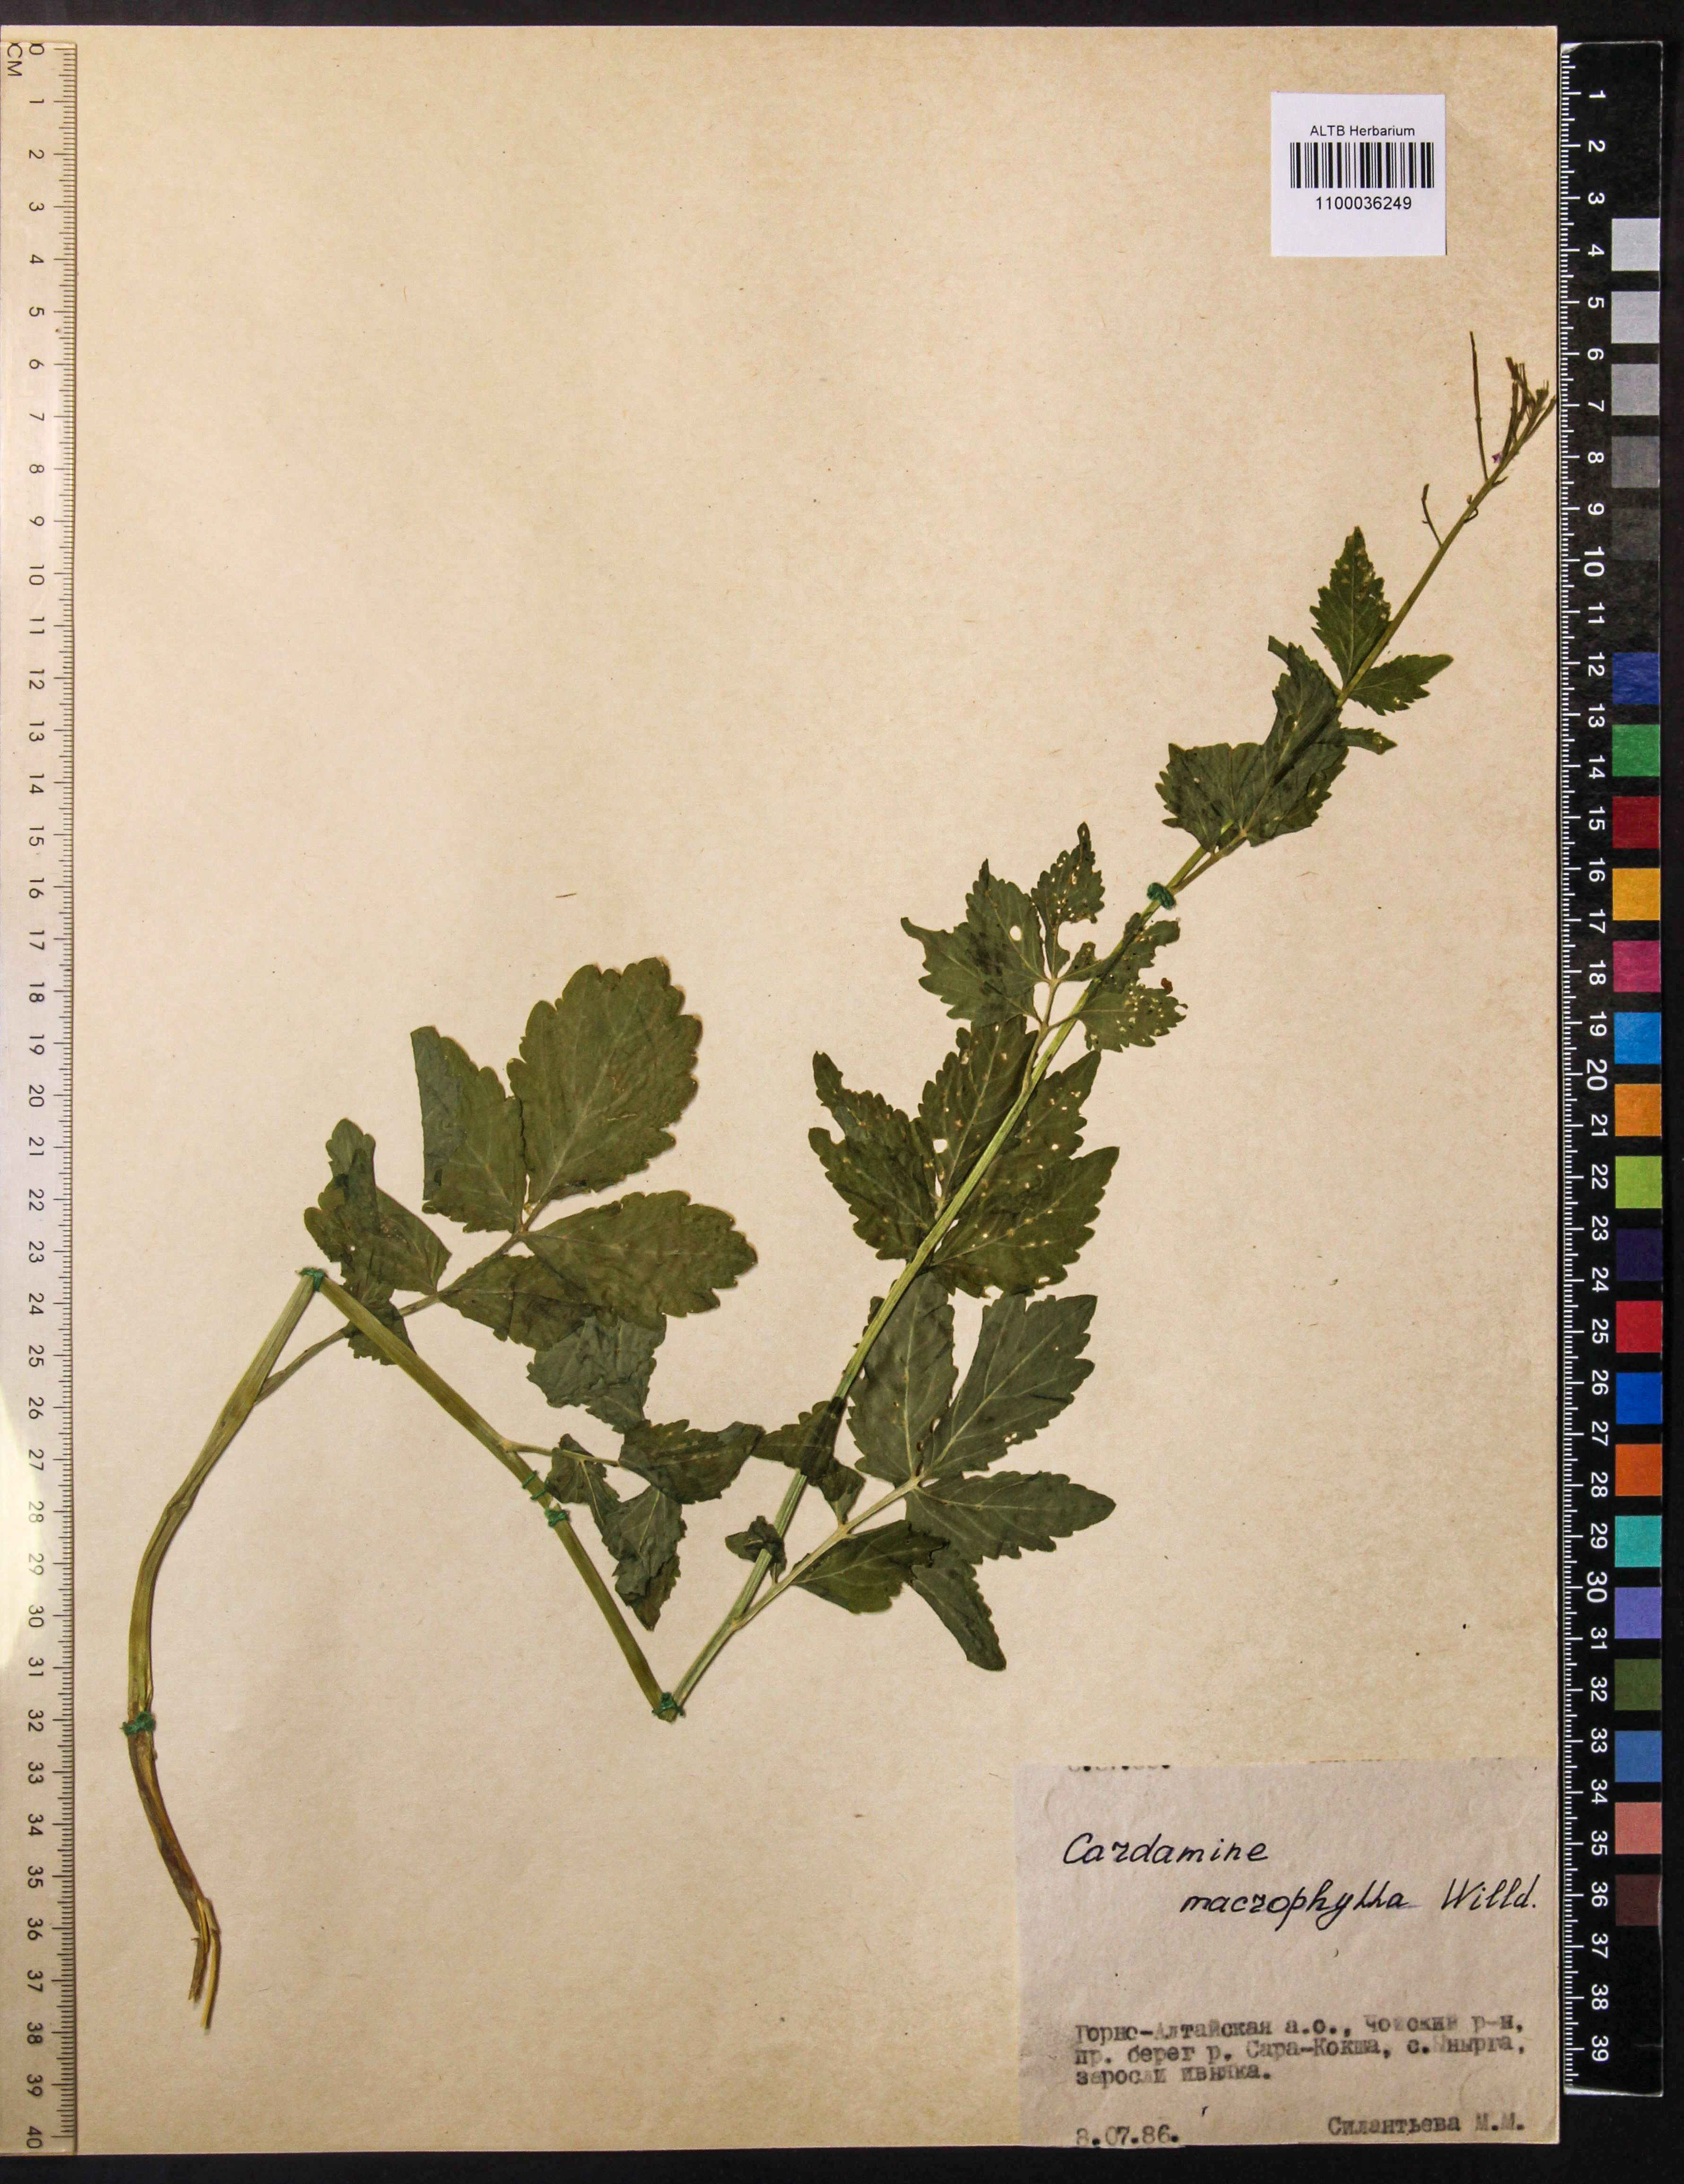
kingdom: Plantae
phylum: Tracheophyta
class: Magnoliopsida
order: Brassicales
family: Brassicaceae
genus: Cardamine
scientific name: Cardamine macrophylla
